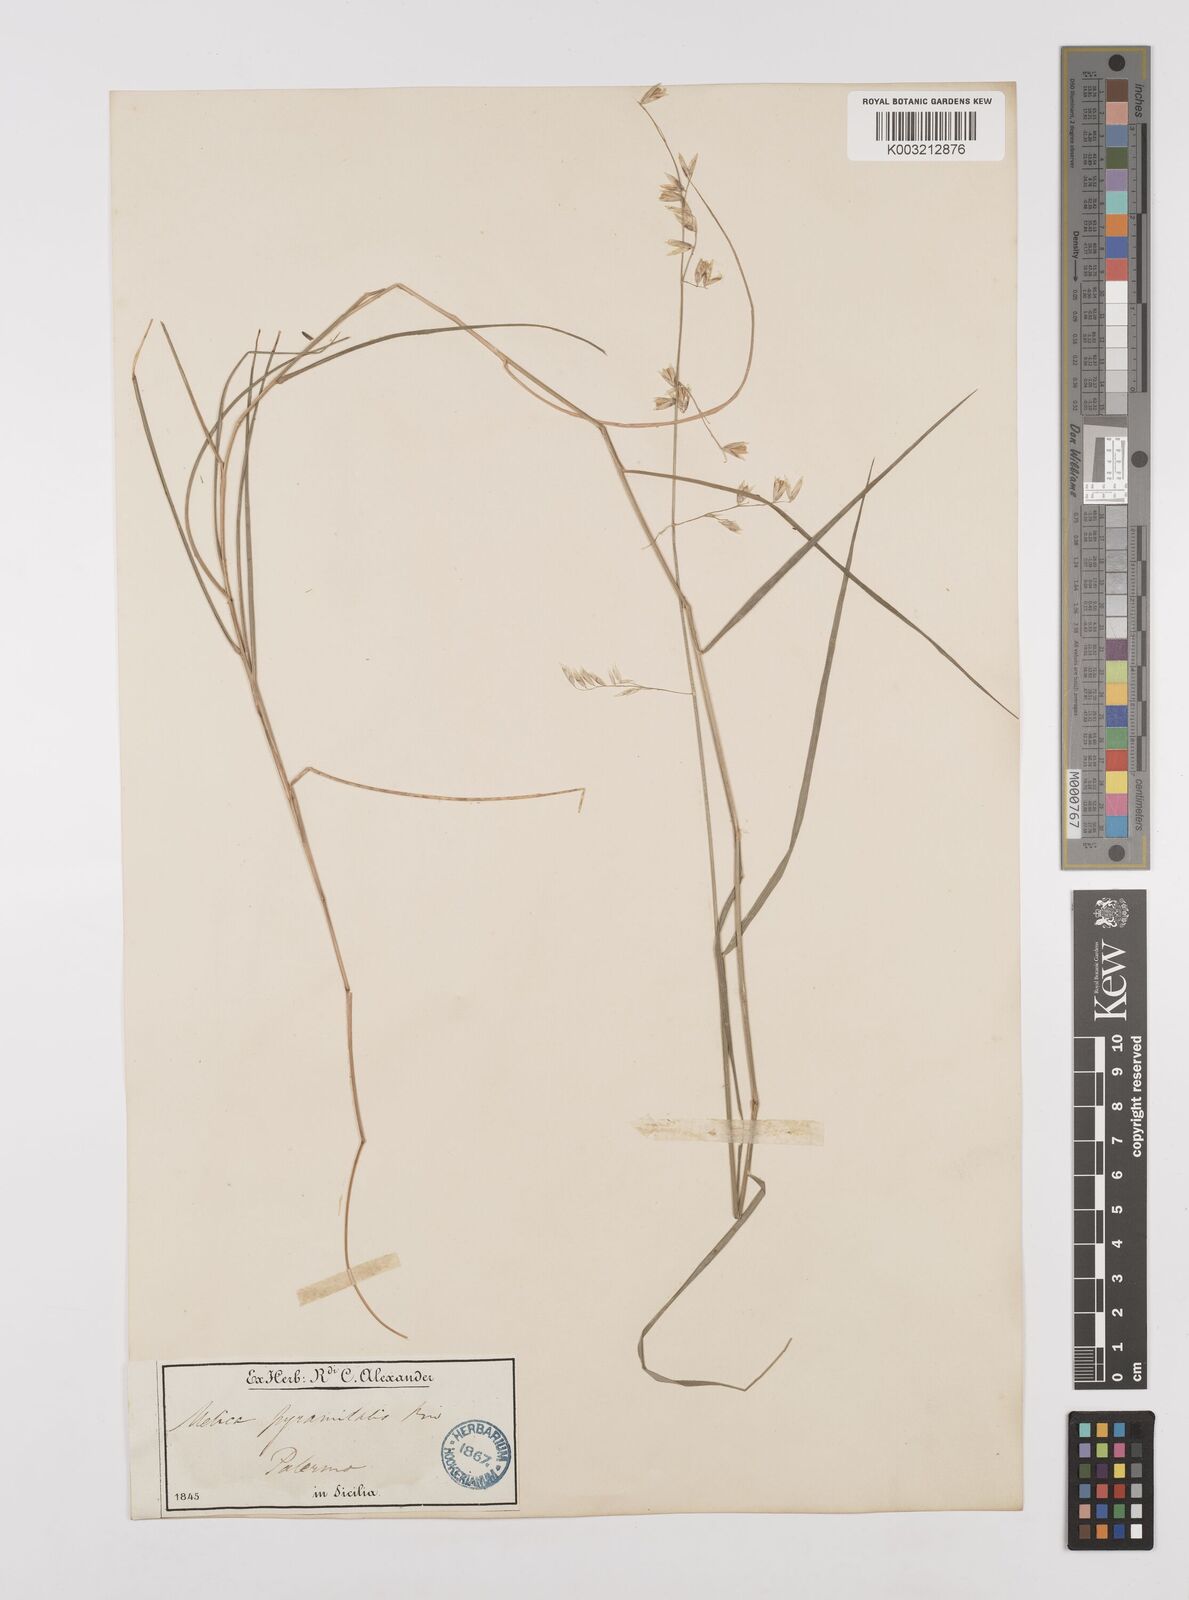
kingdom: Plantae
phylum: Tracheophyta
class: Liliopsida
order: Poales
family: Poaceae
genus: Melica
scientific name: Melica minuta
